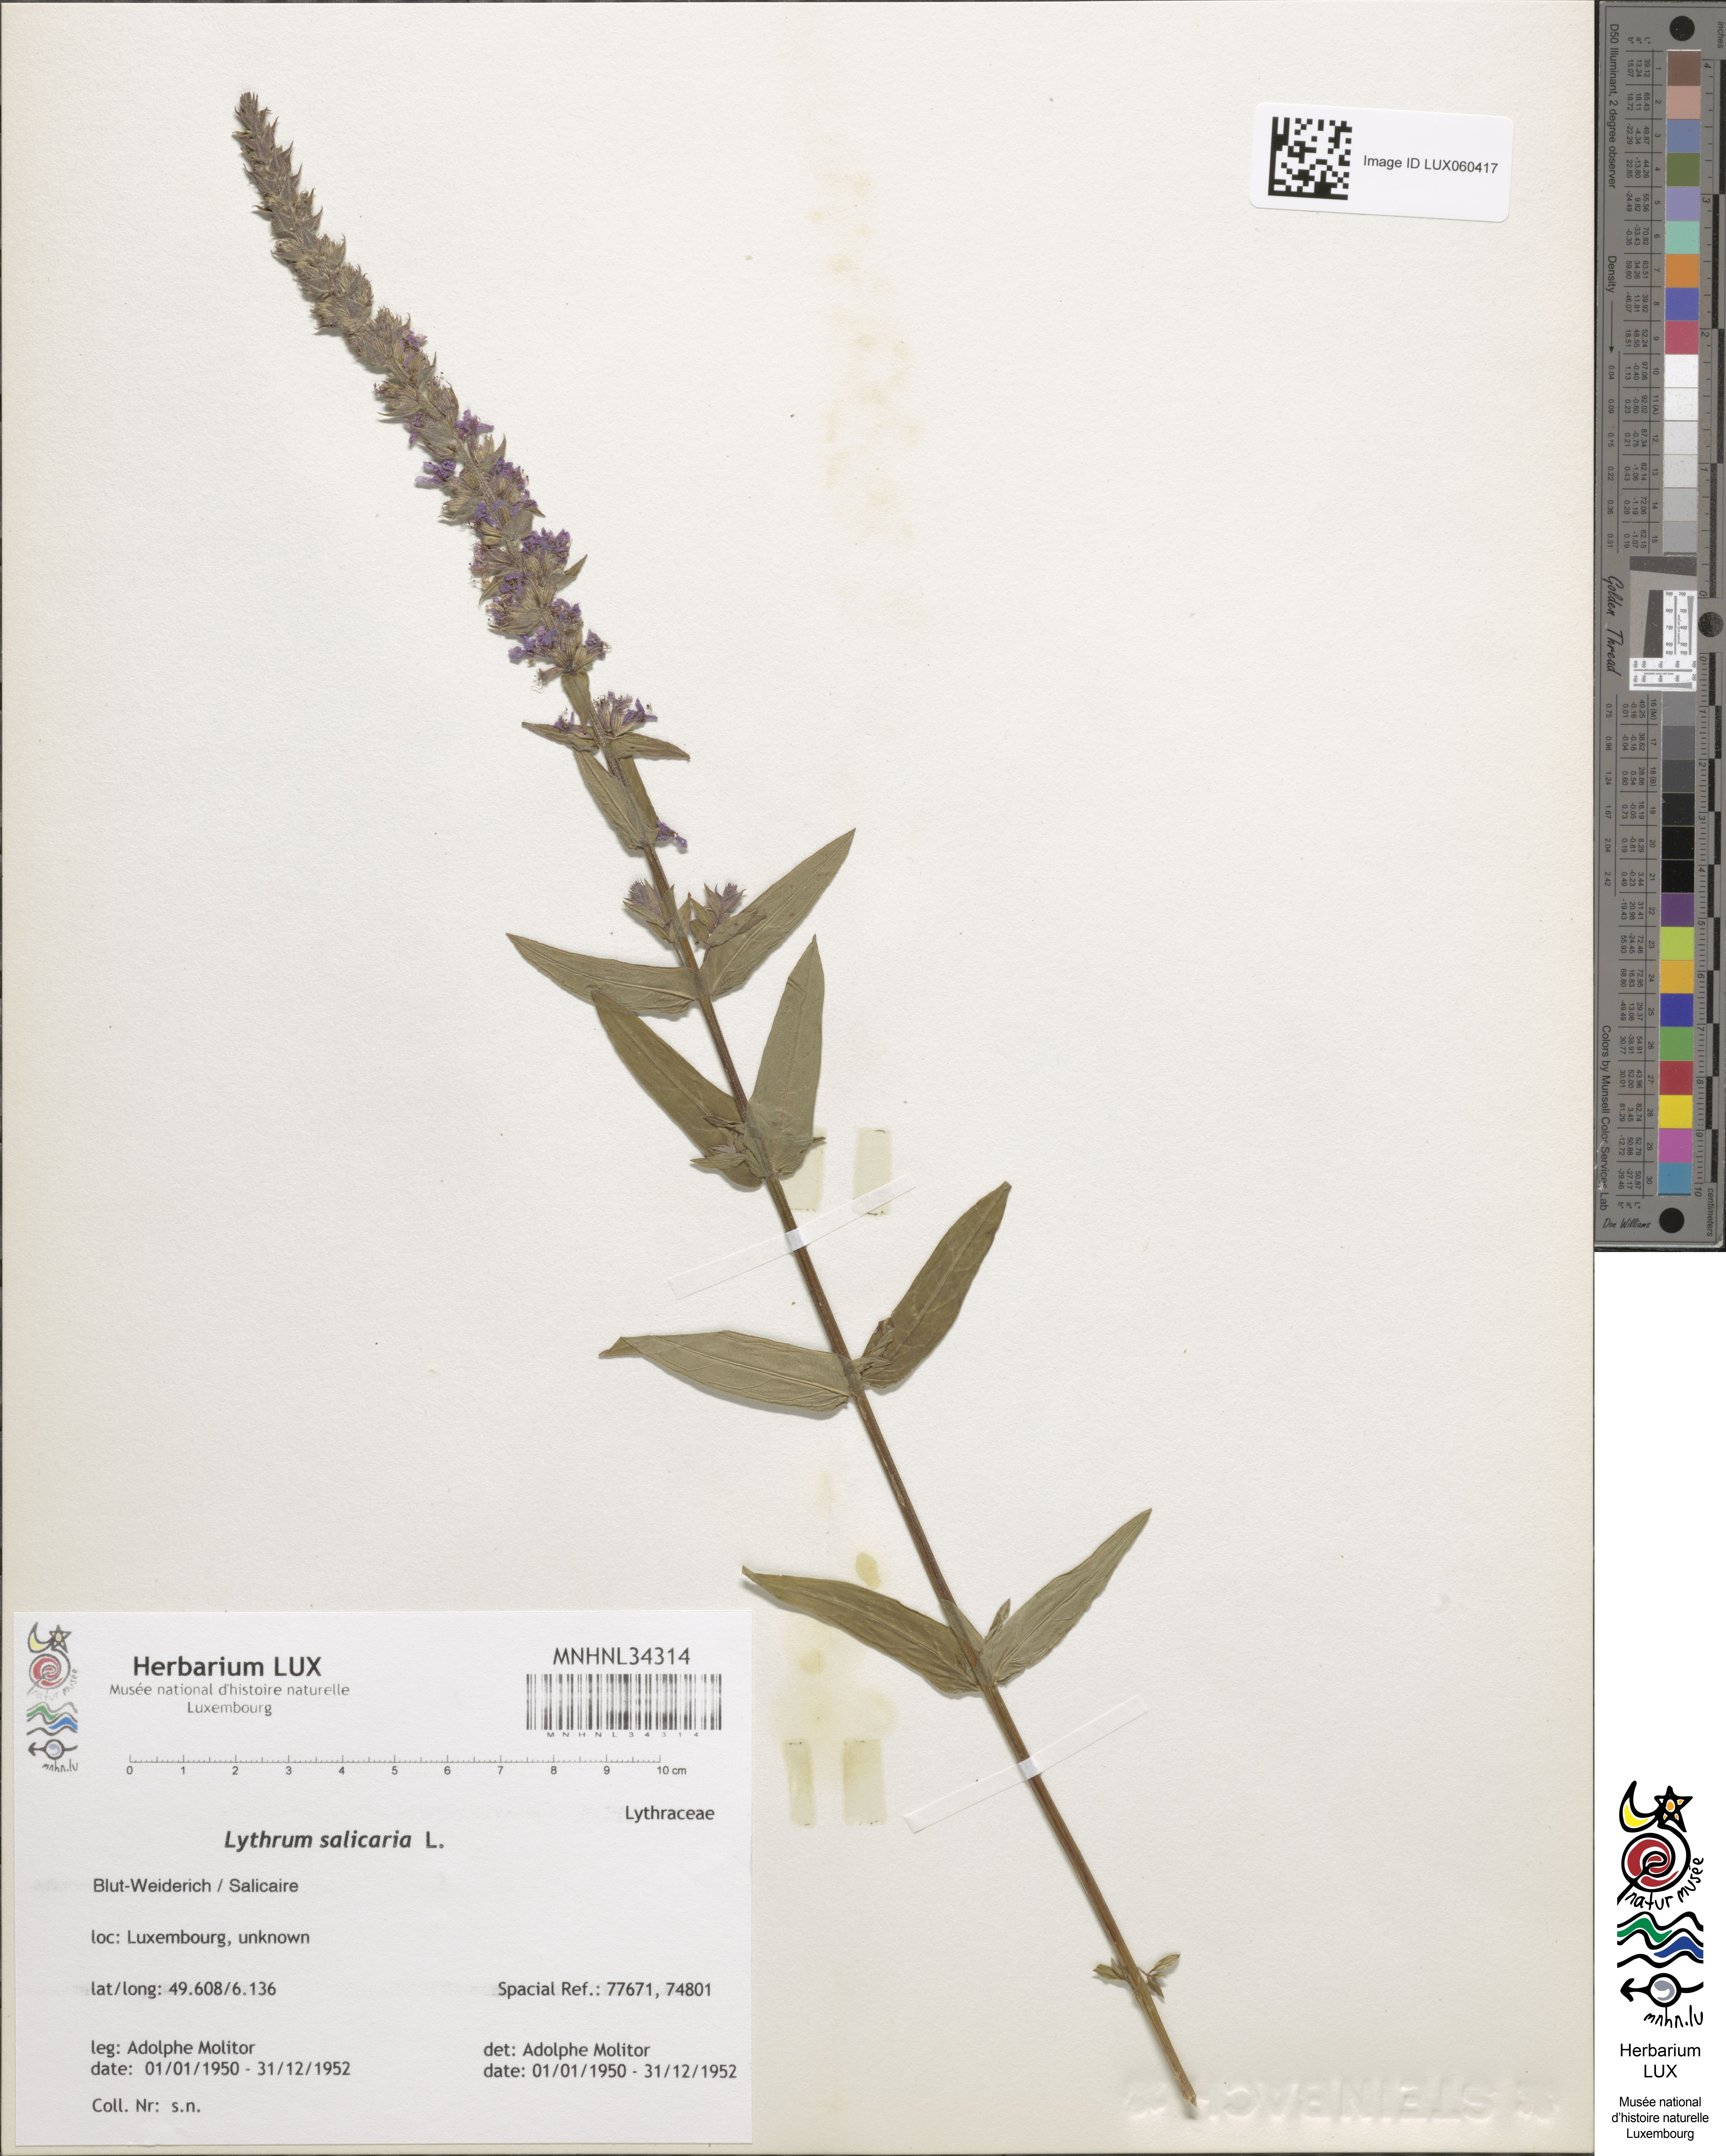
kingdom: Plantae
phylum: Tracheophyta
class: Magnoliopsida
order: Myrtales
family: Lythraceae
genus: Lythrum
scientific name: Lythrum salicaria
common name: Purple loosestrife
